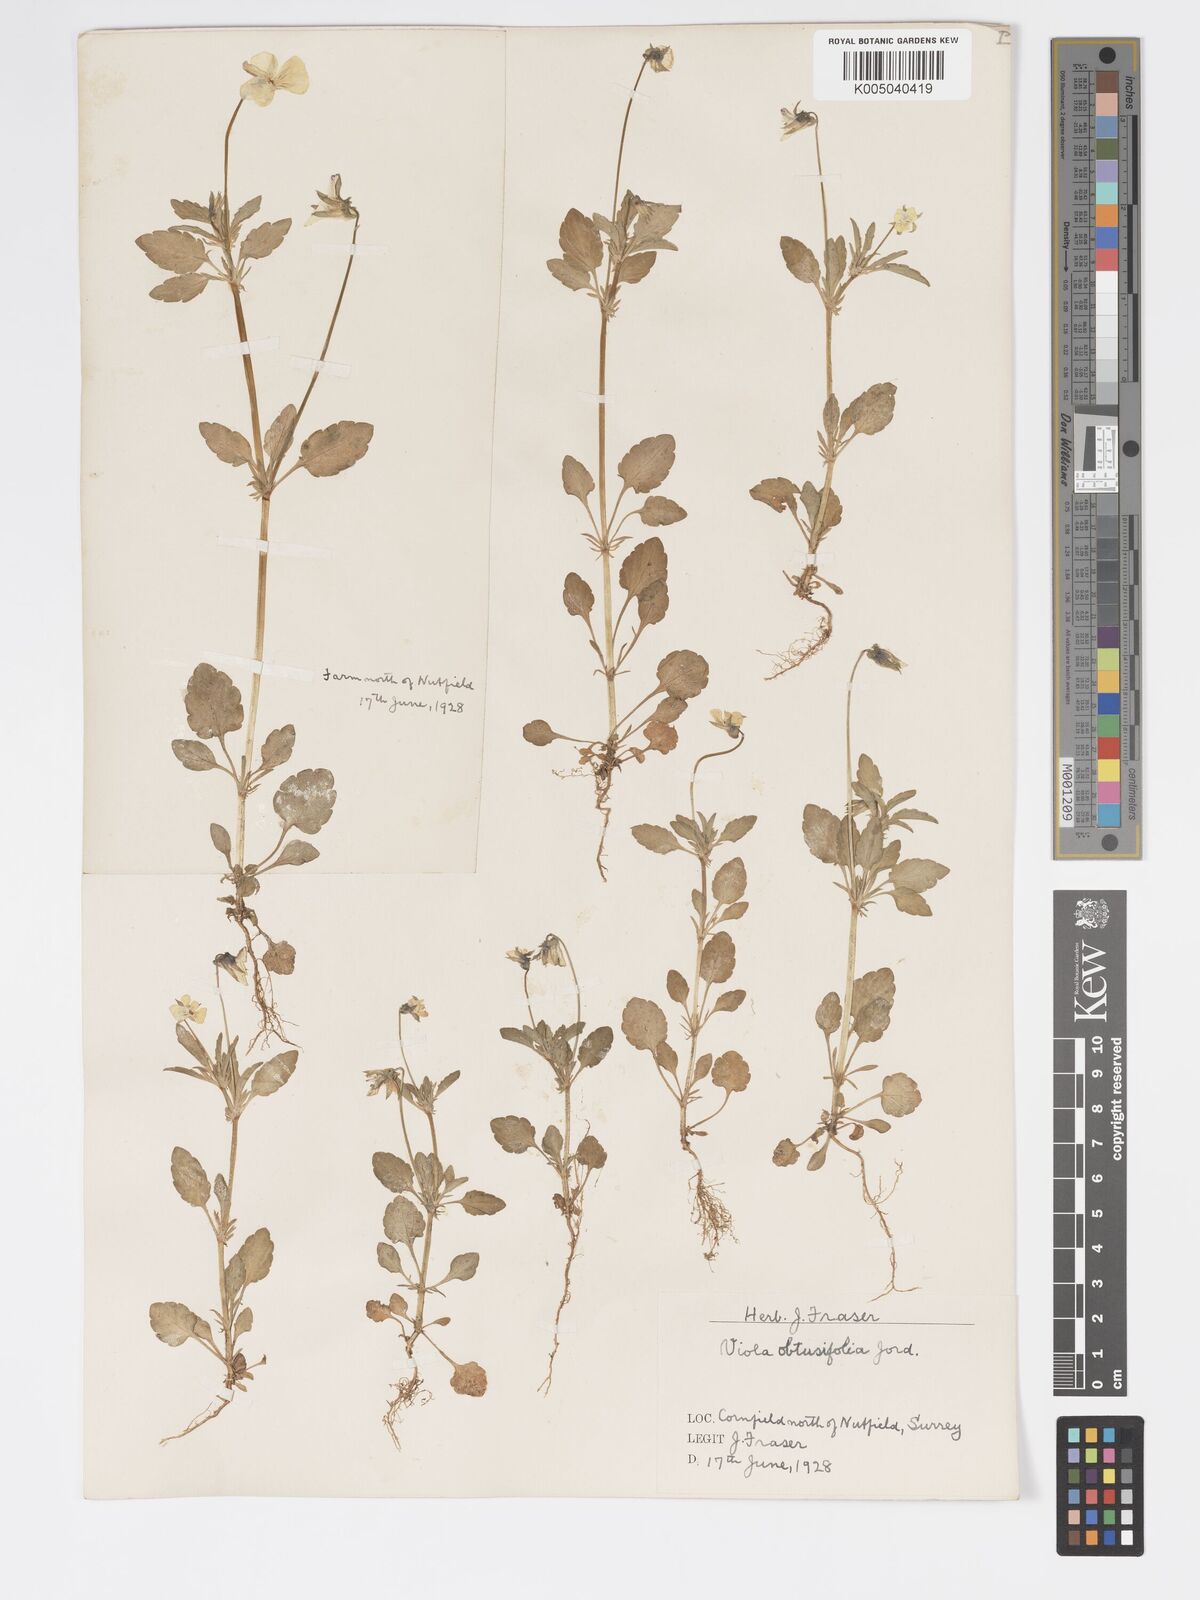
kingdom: Plantae
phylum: Tracheophyta
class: Magnoliopsida
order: Malpighiales
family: Violaceae
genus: Viola
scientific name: Viola arvensis
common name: Field pansy
